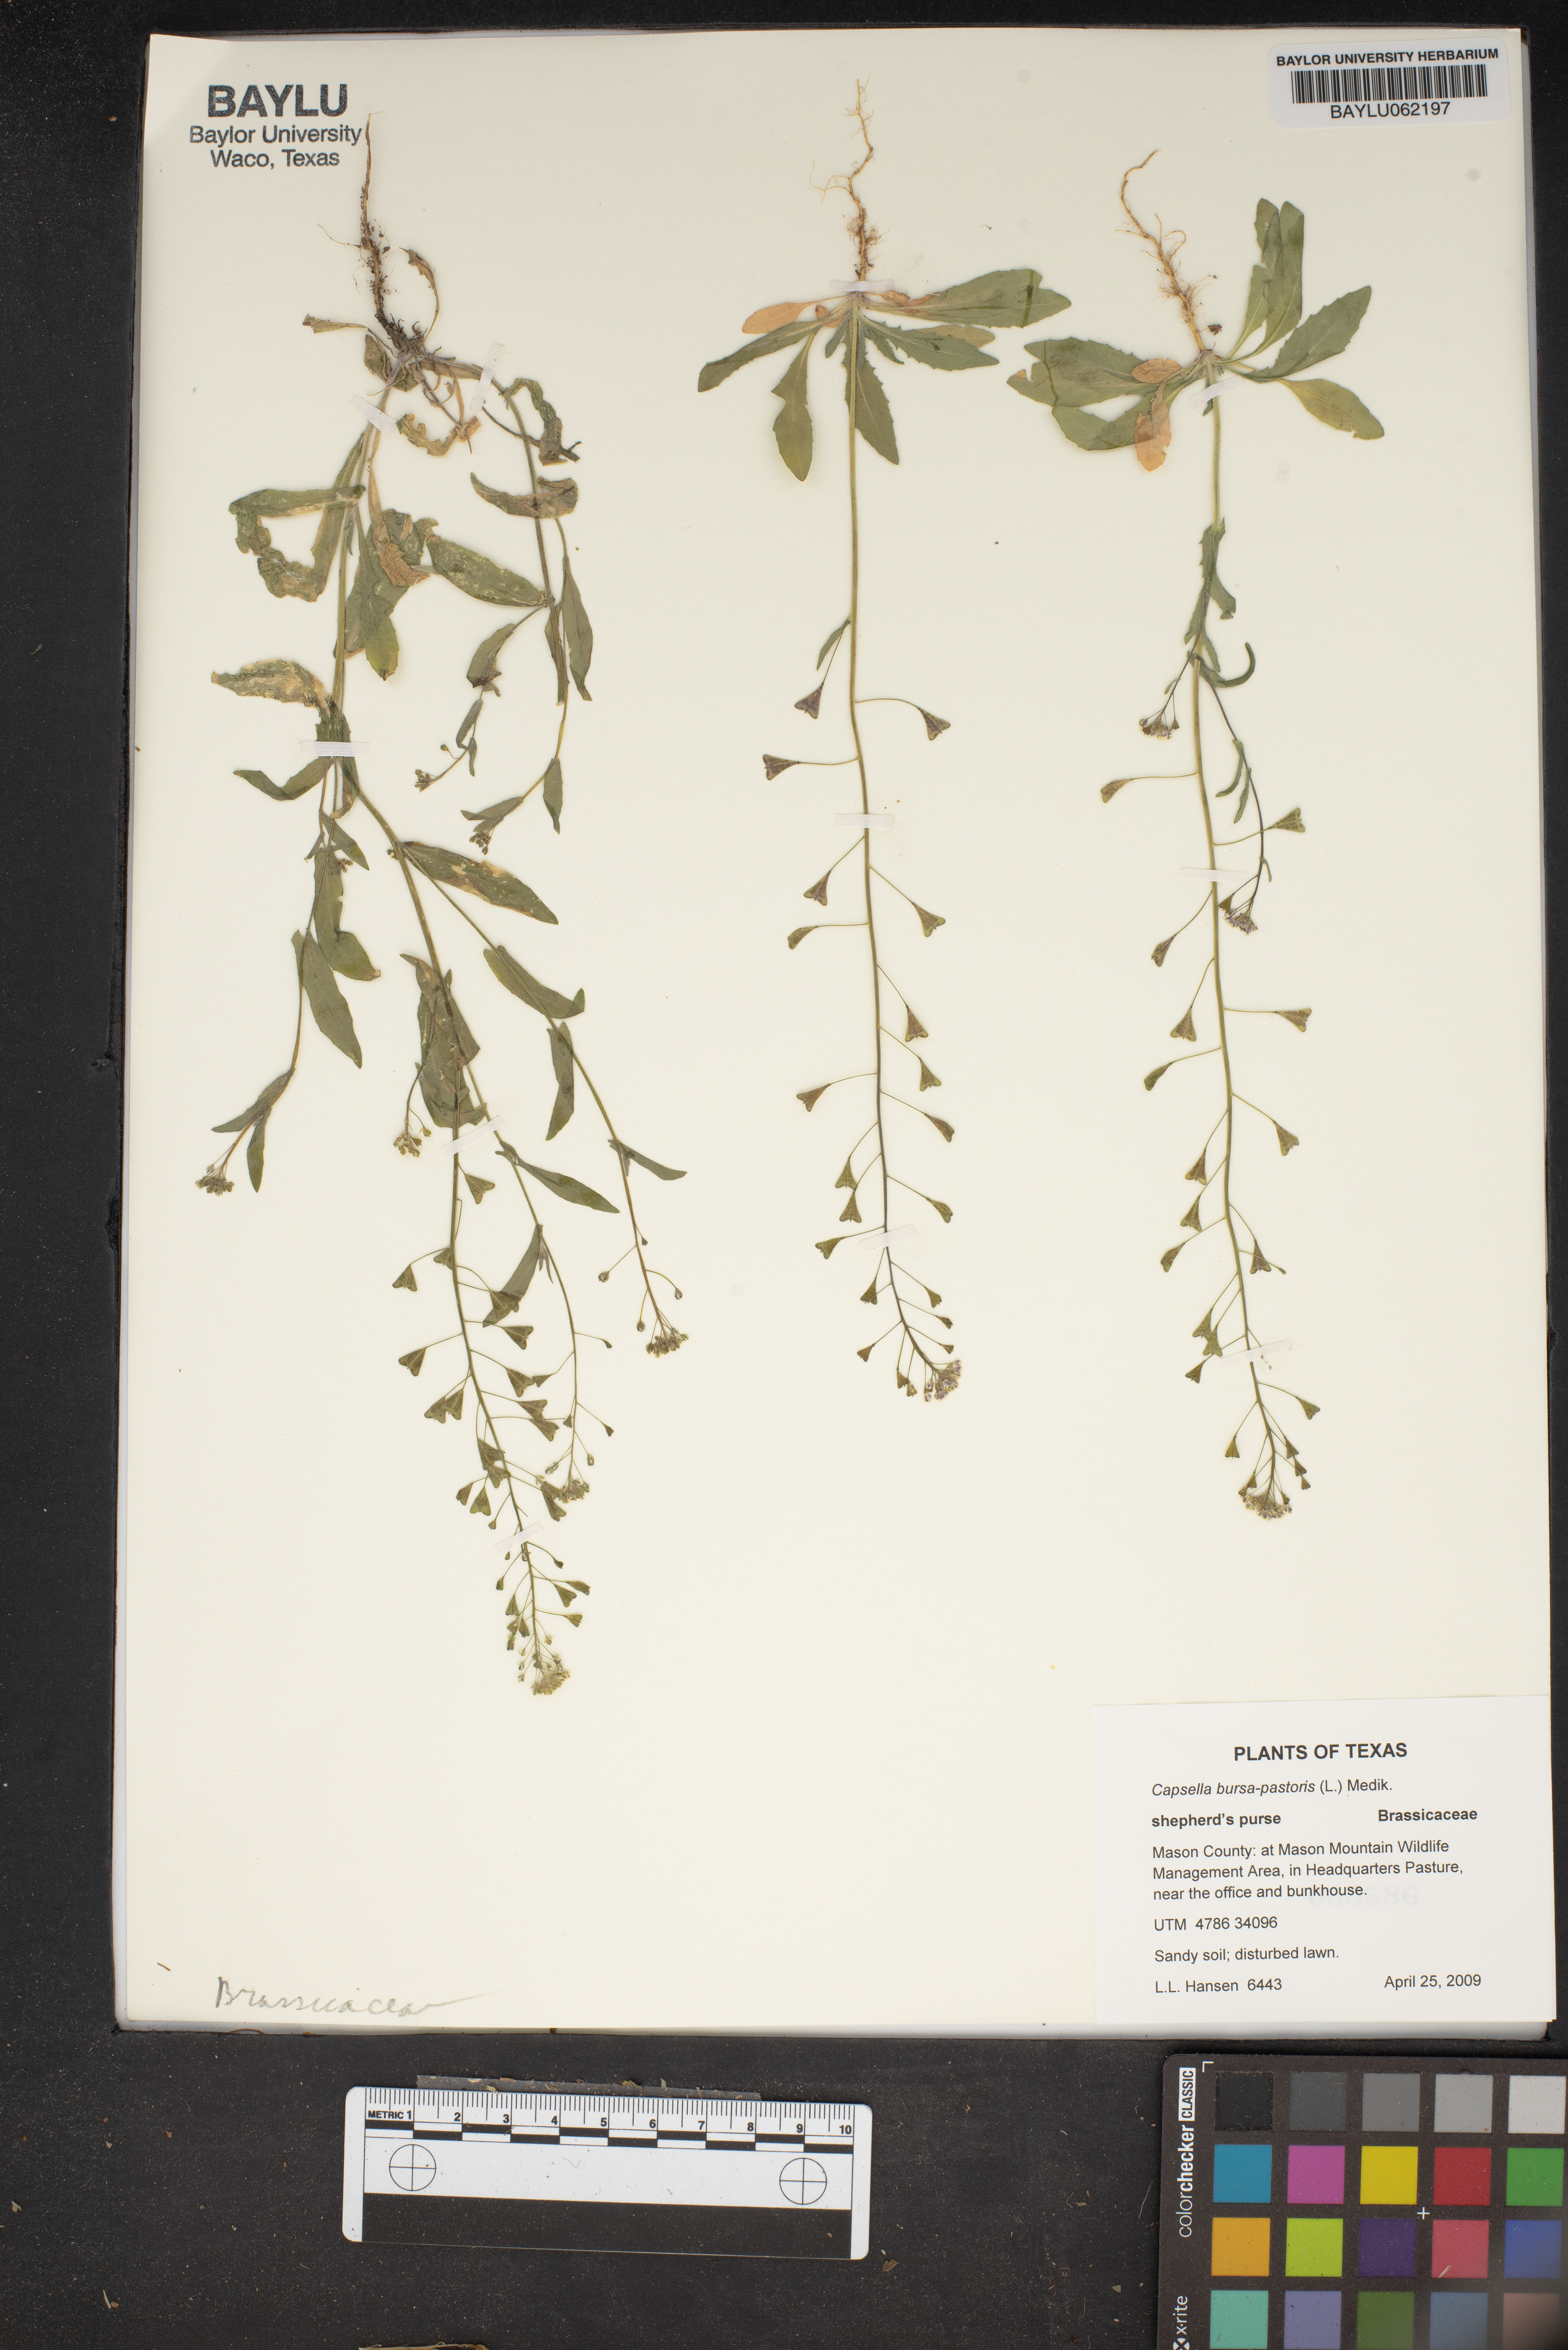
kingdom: Plantae
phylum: Tracheophyta
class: Magnoliopsida
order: Brassicales
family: Brassicaceae
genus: Capsella
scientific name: Capsella bursa-pastoris
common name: Shepherd's purse
